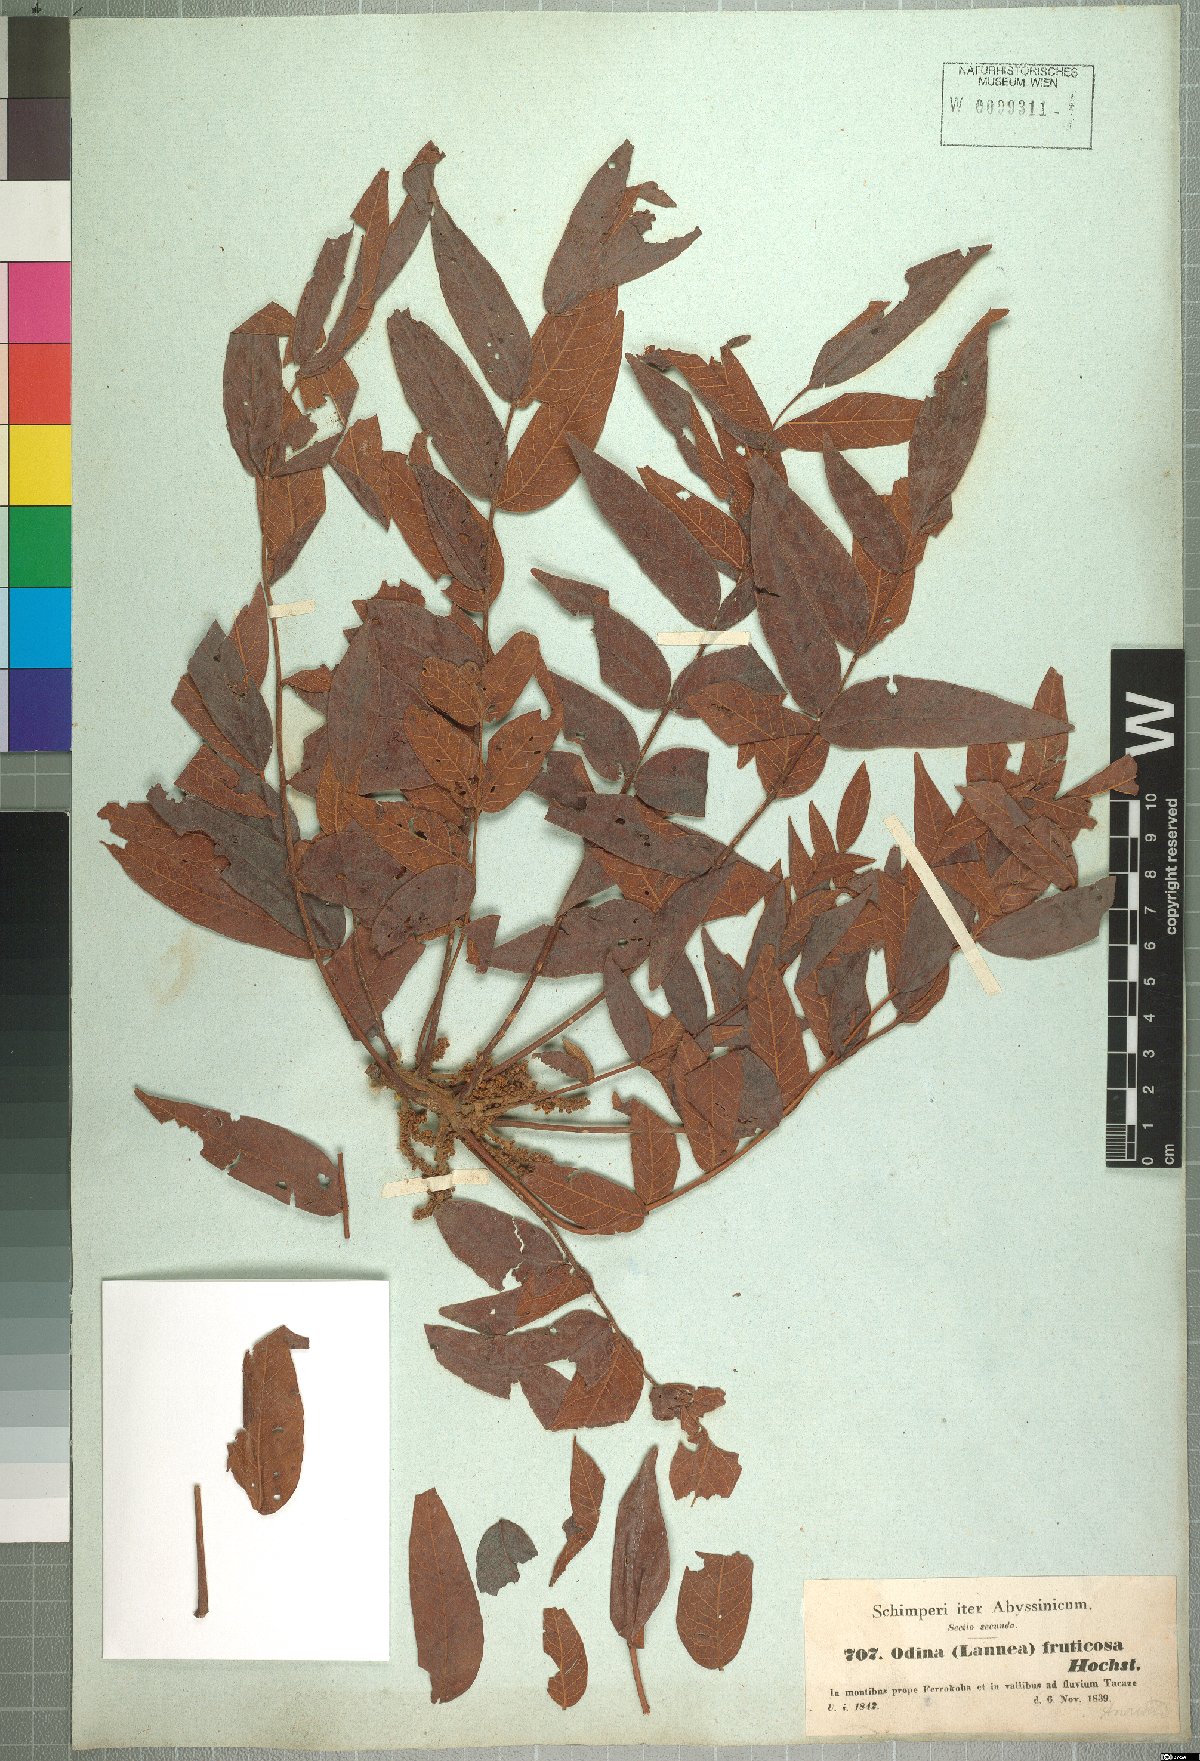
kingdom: Plantae
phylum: Tracheophyta
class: Magnoliopsida
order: Sapindales
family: Anacardiaceae
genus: Lannea
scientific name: Lannea fruticosa
